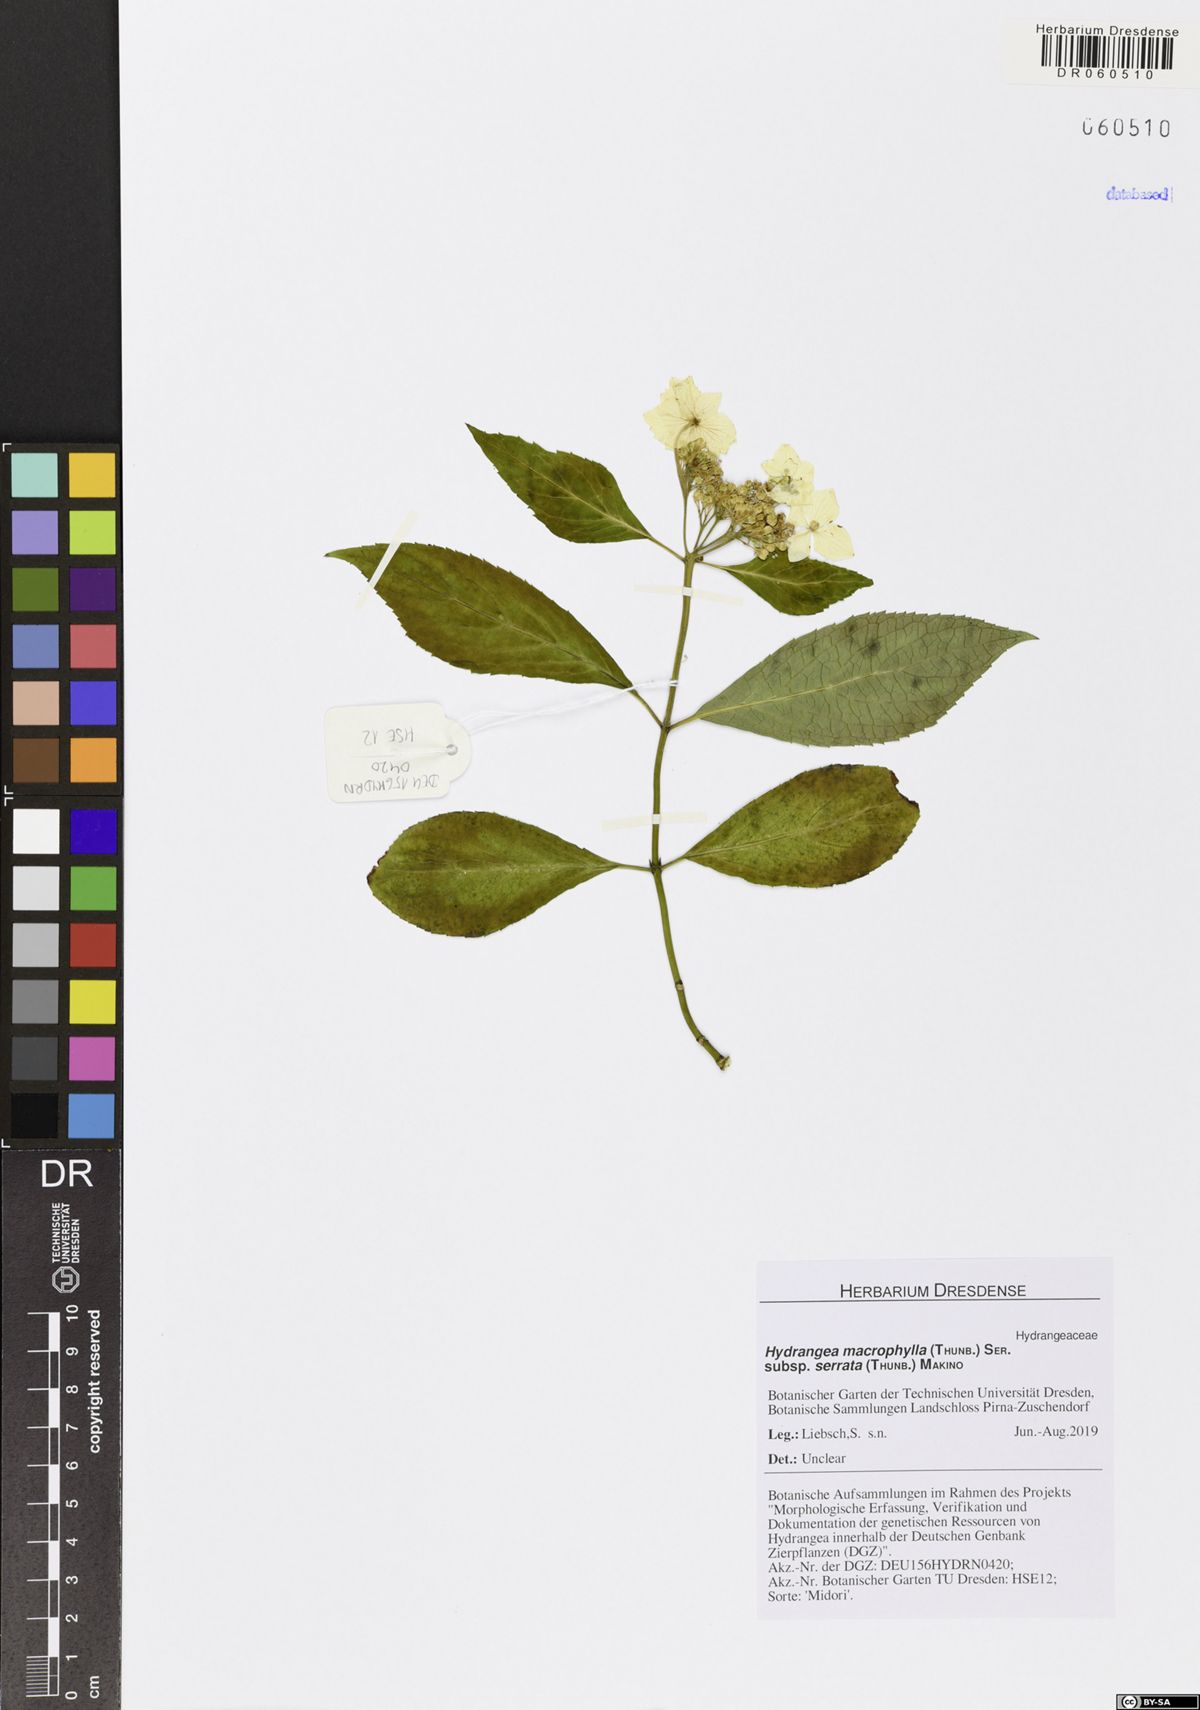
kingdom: Plantae
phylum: Tracheophyta
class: Magnoliopsida
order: Cornales
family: Hydrangeaceae
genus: Hydrangea
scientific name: Hydrangea serrata
